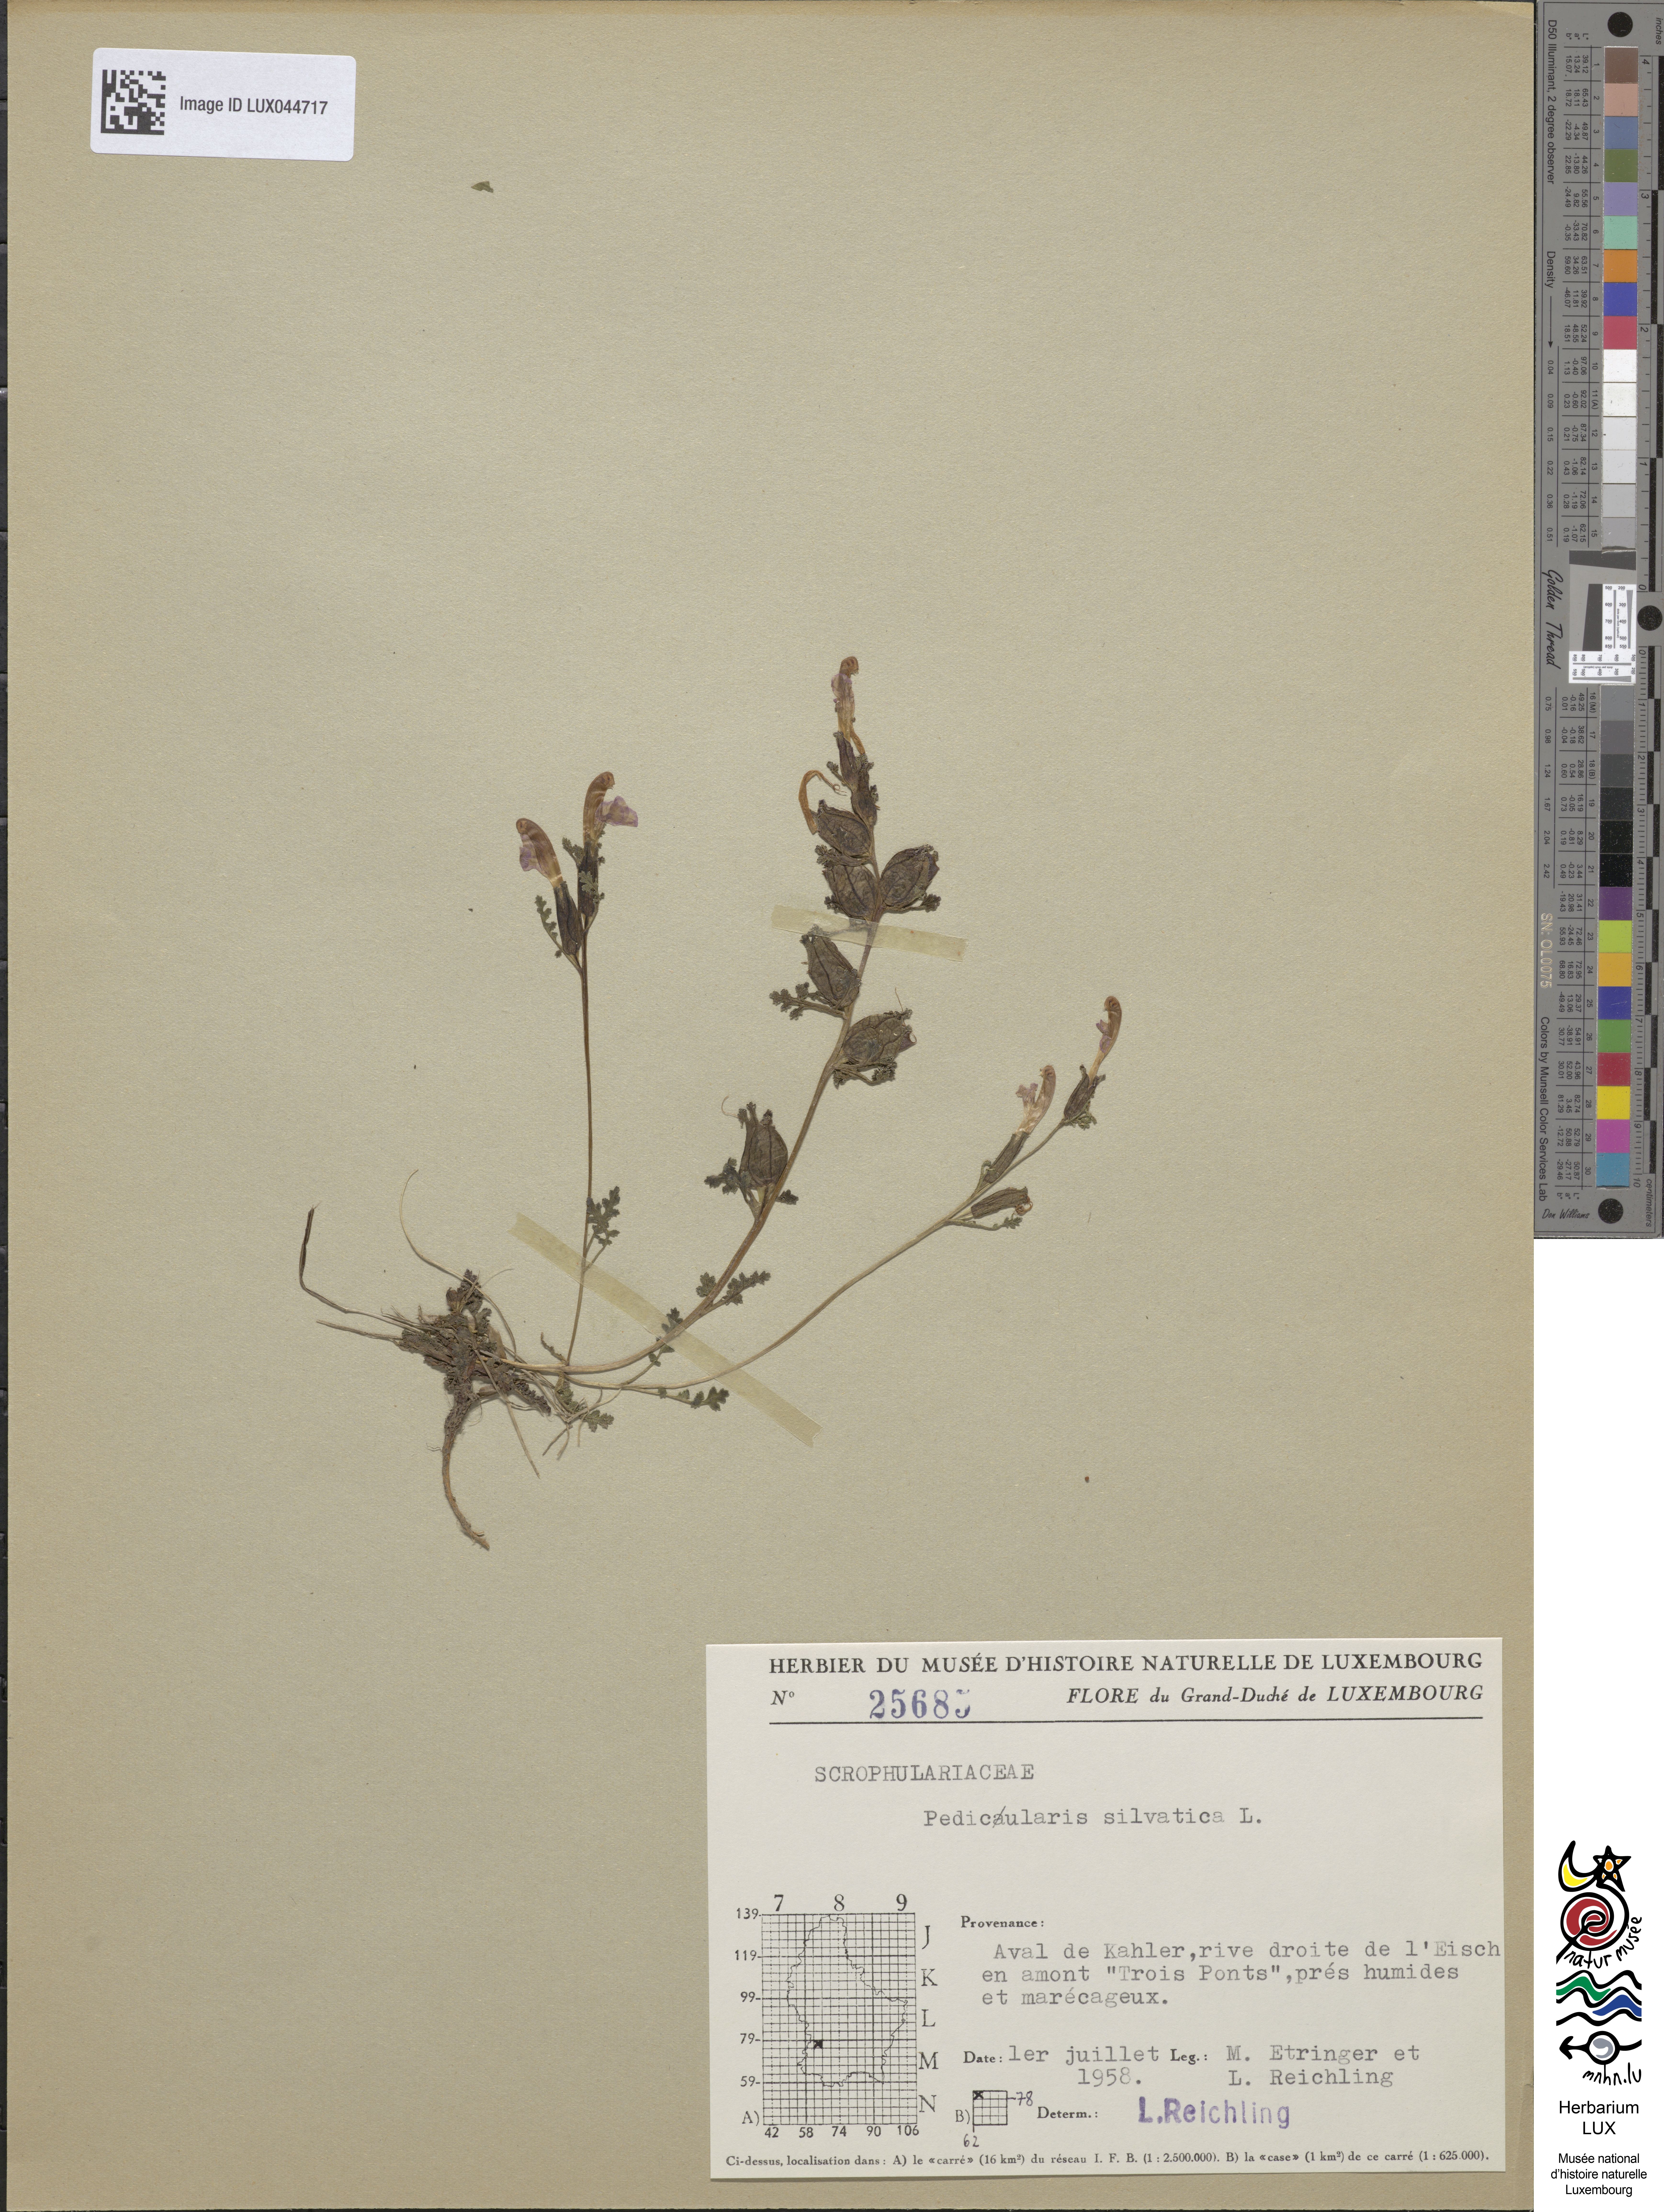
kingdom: Plantae
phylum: Tracheophyta
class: Magnoliopsida
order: Lamiales
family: Orobanchaceae
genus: Pedicularis
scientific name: Pedicularis sylvatica
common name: Lousewort
